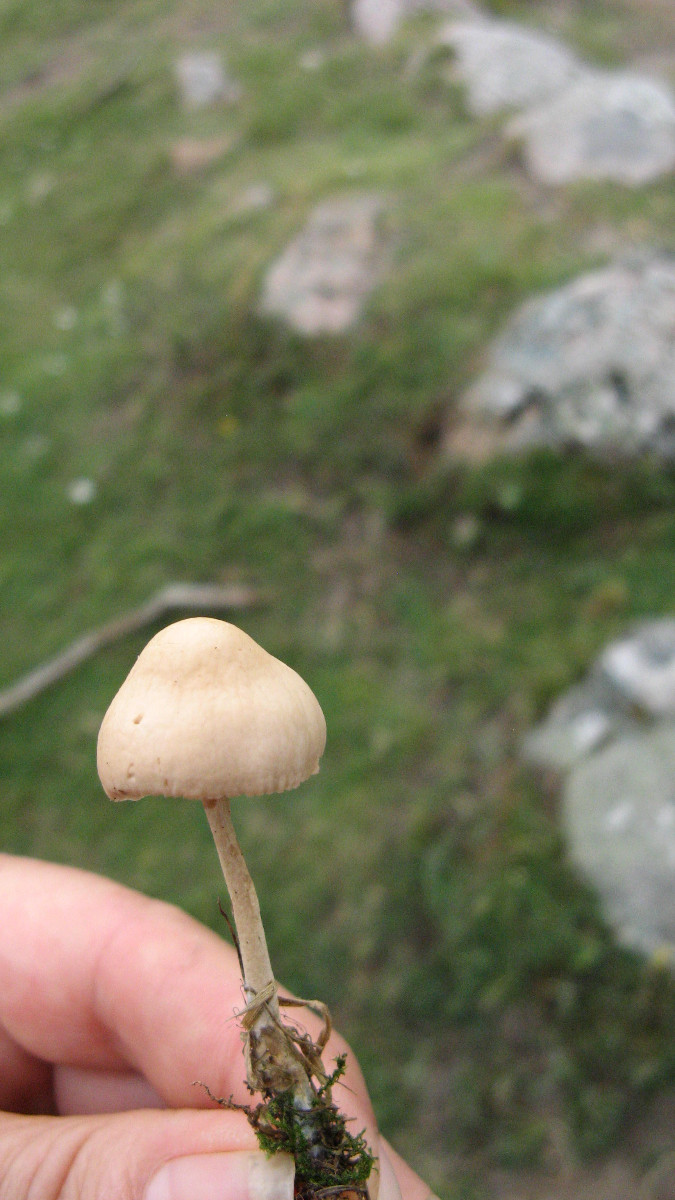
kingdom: Fungi
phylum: Basidiomycota
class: Agaricomycetes
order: Agaricales
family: Marasmiaceae
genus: Marasmius
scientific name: Marasmius oreades
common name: elledans-bruskhat
